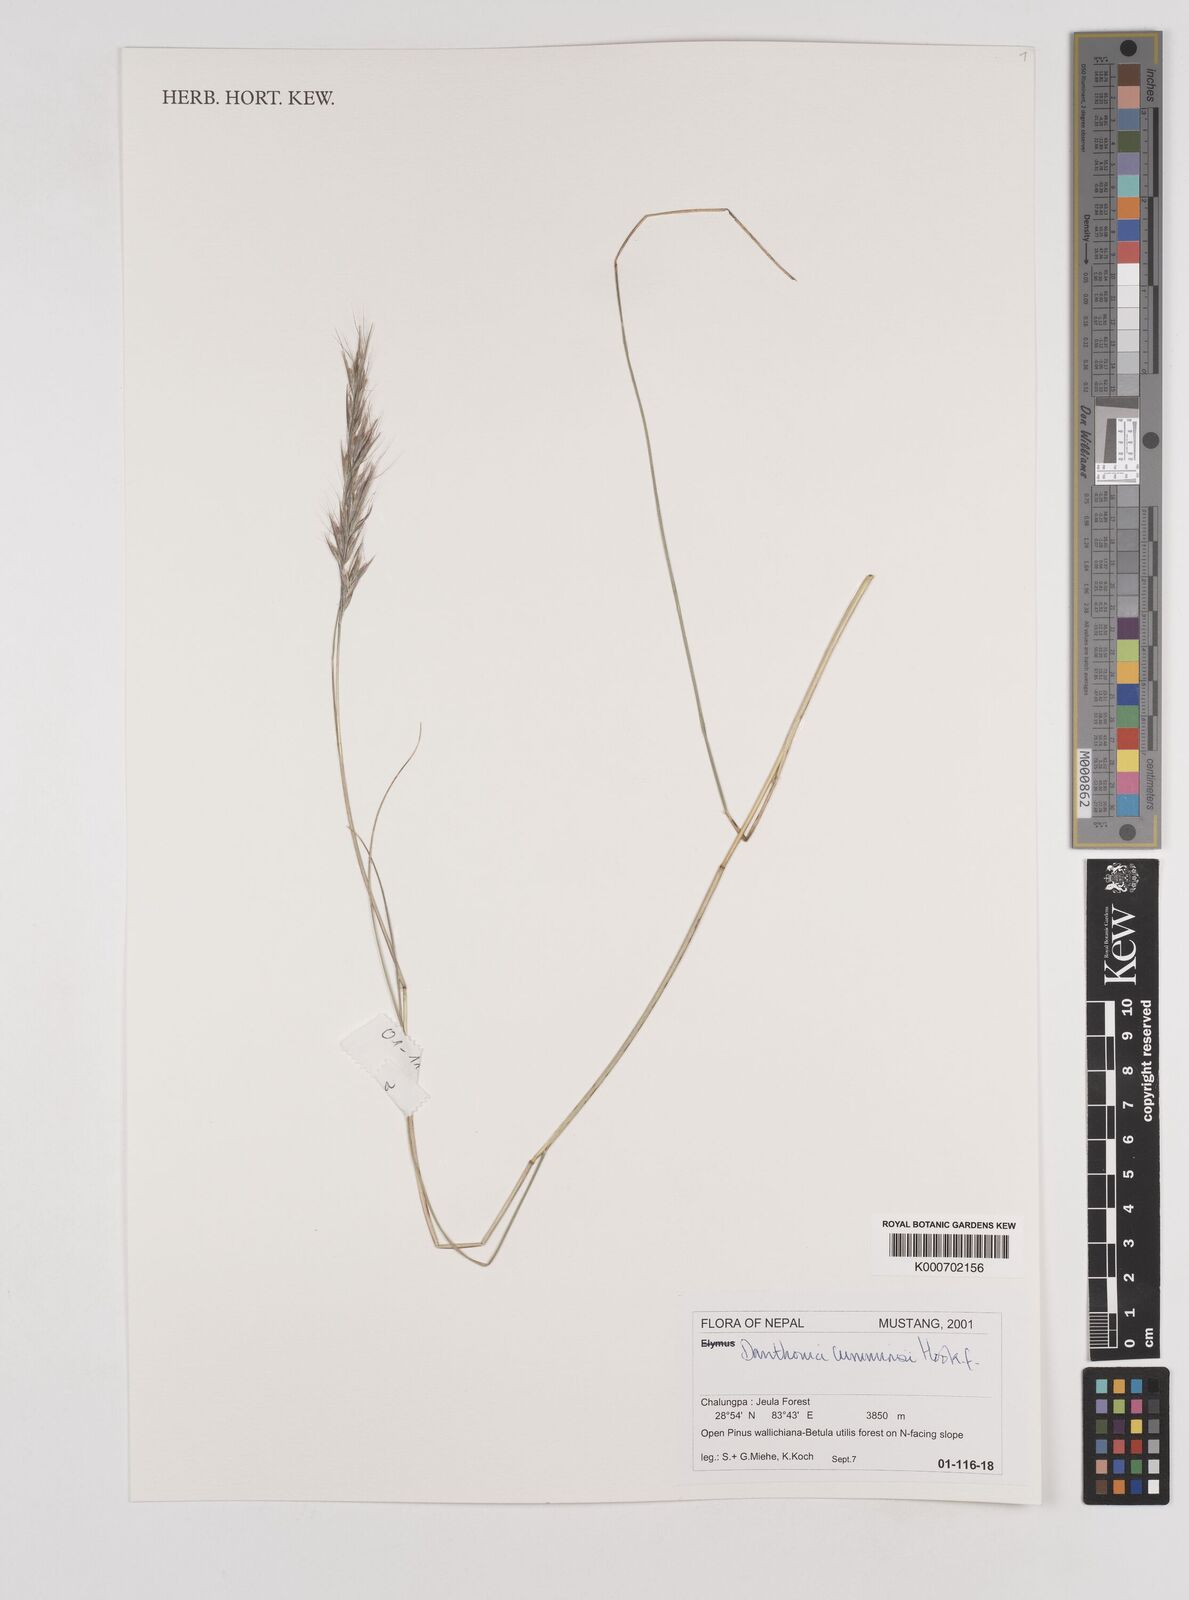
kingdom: Plantae
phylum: Tracheophyta
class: Liliopsida
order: Poales
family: Poaceae
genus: Tenaxia
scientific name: Tenaxia cumminsii
